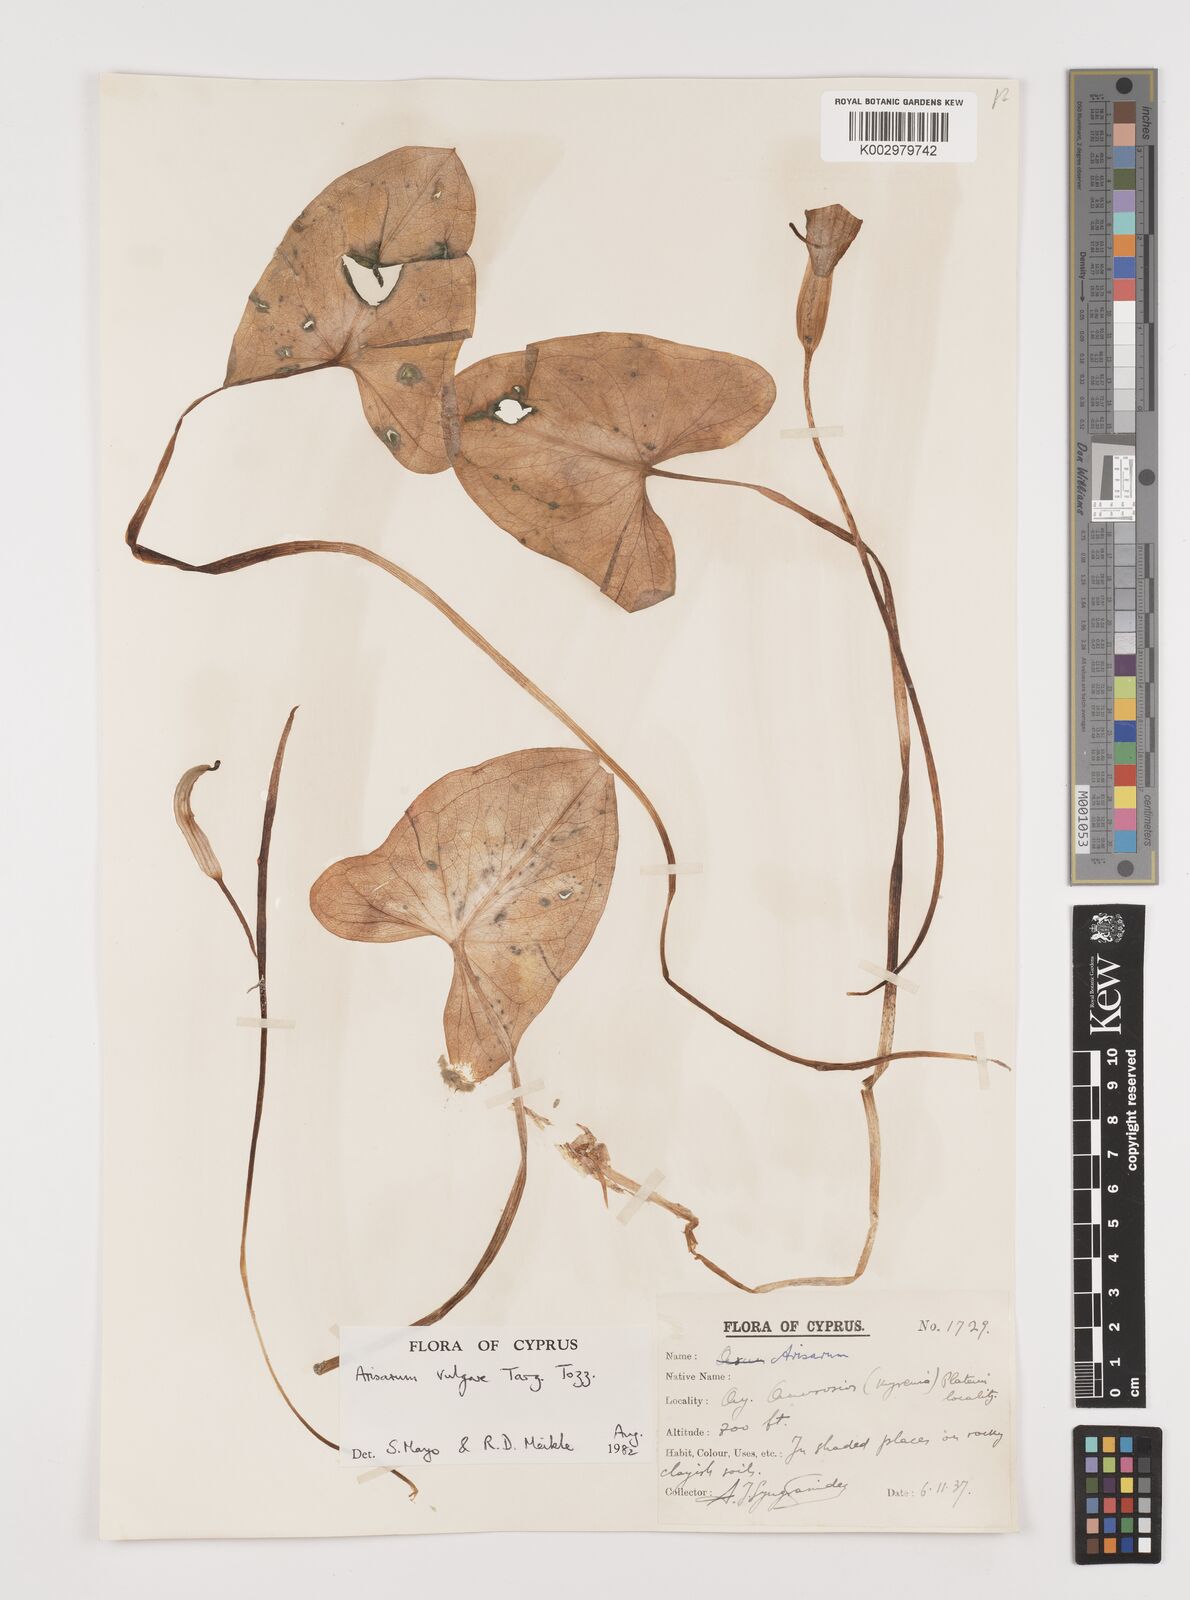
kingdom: Plantae
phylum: Tracheophyta
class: Liliopsida
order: Alismatales
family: Araceae
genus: Arisarum
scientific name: Arisarum vulgare
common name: Common arisarum
